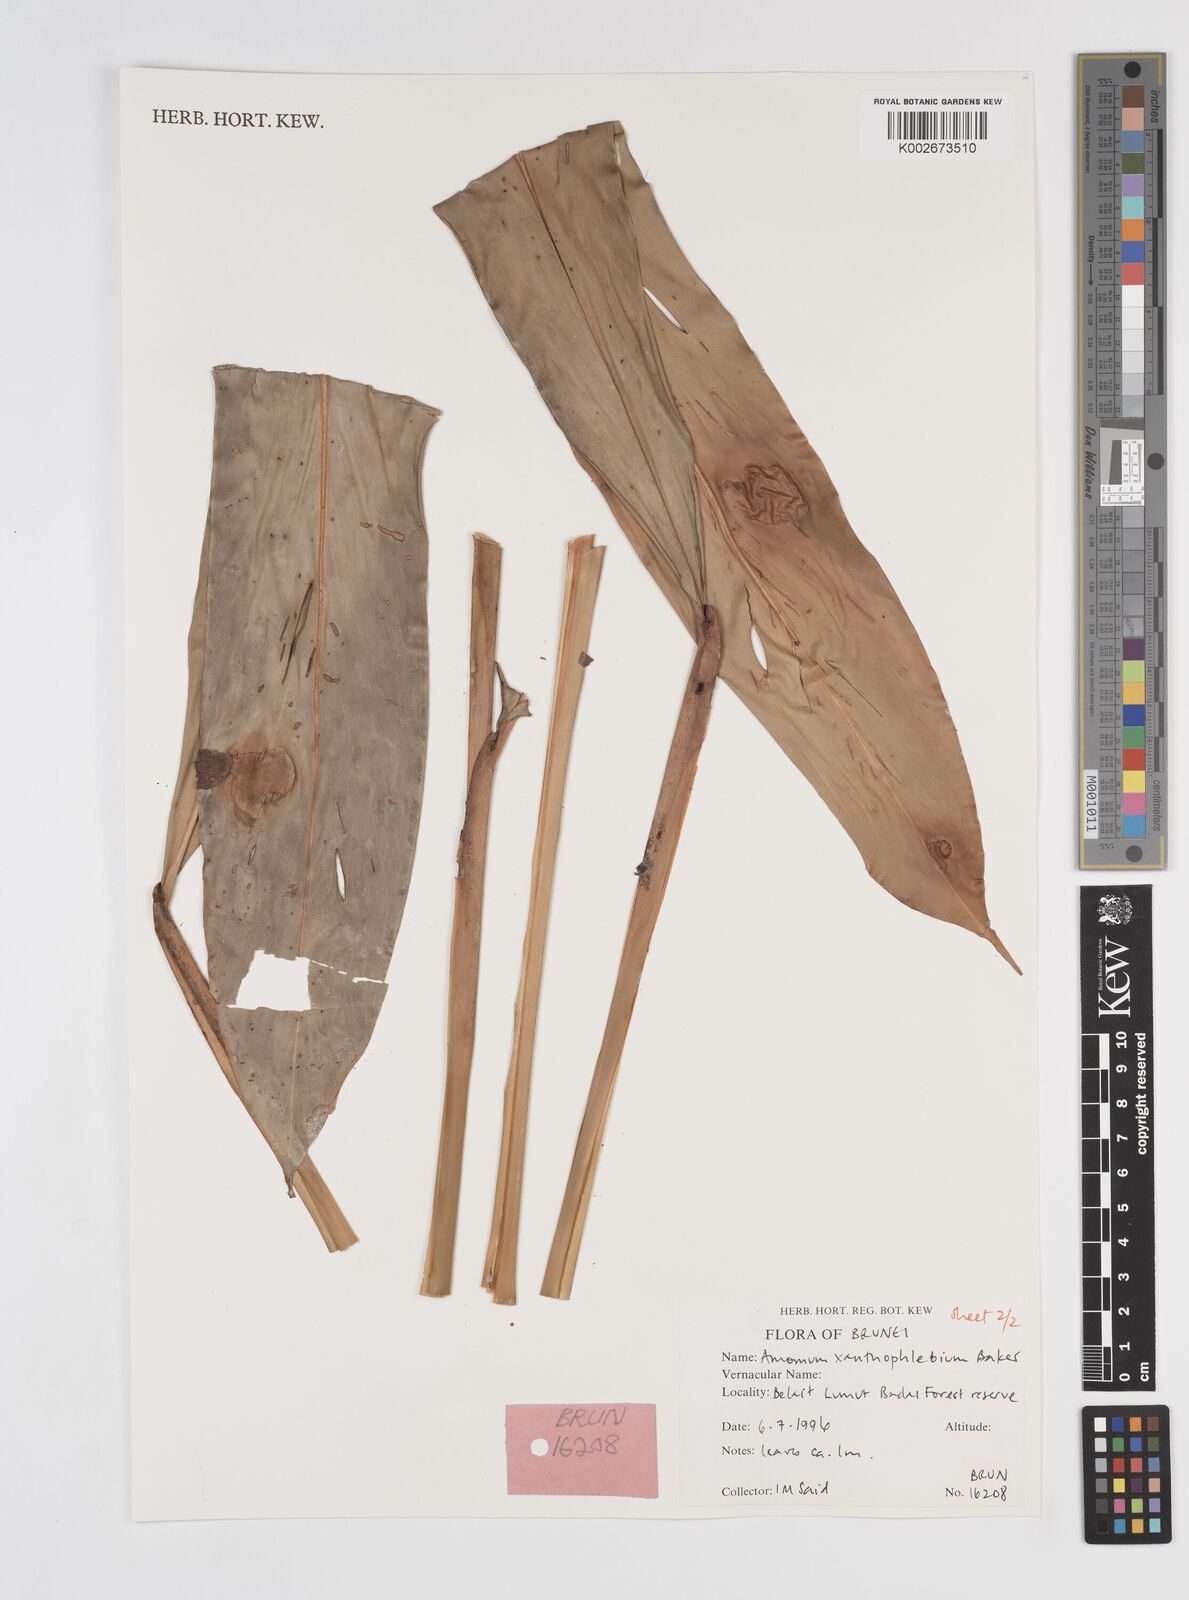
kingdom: Plantae
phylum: Tracheophyta
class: Liliopsida
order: Zingiberales
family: Zingiberaceae
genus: Conamomum
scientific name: Conamomum xanthophlebium
